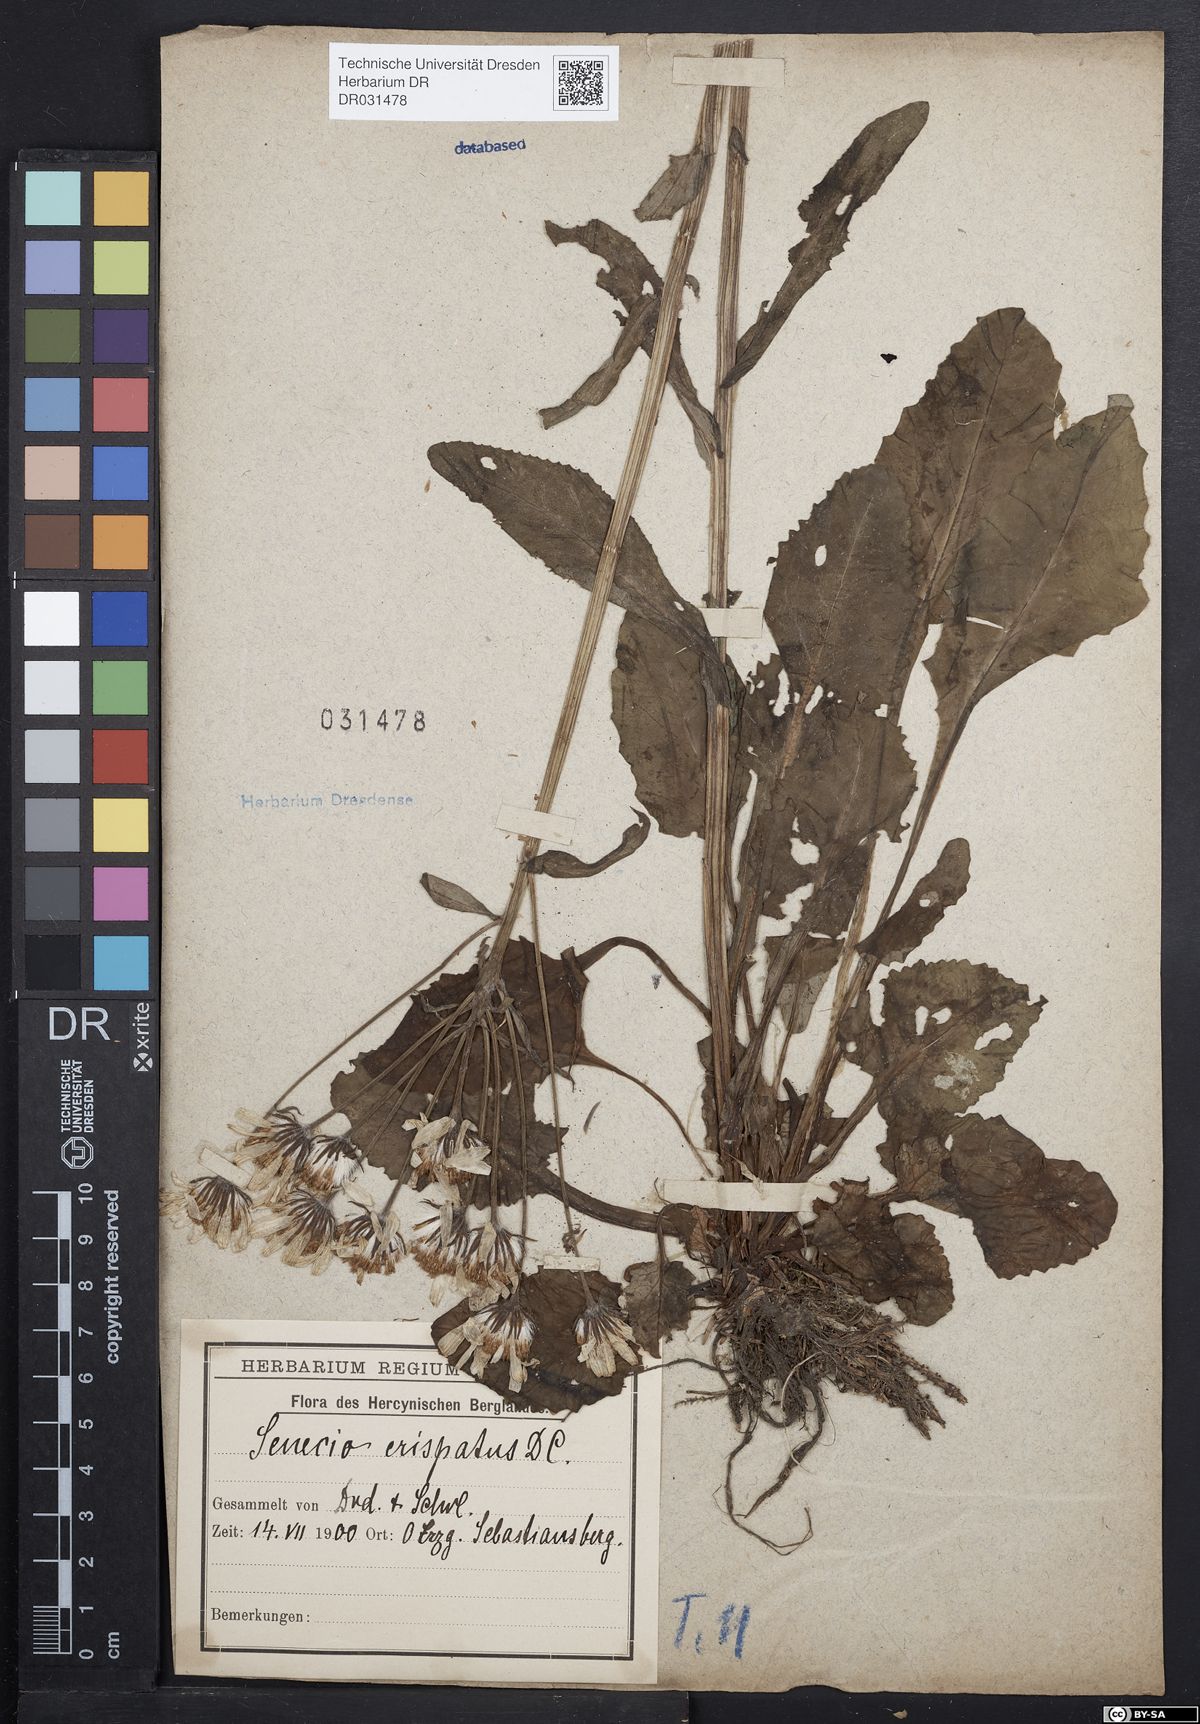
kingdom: Plantae
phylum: Tracheophyta
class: Magnoliopsida
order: Asterales
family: Asteraceae
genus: Tephroseris
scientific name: Tephroseris crispa
